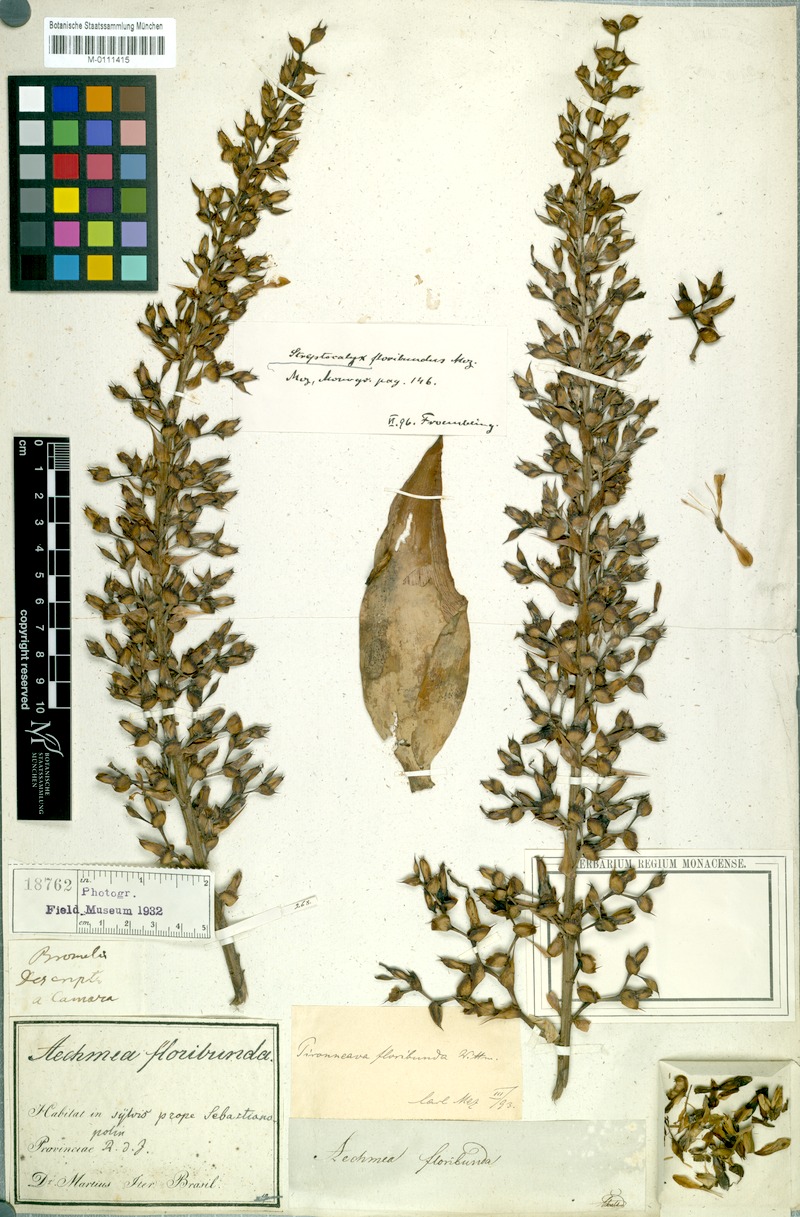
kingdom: Plantae
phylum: Tracheophyta
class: Liliopsida
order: Poales
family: Bromeliaceae
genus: Aechmea
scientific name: Aechmea floribunda
